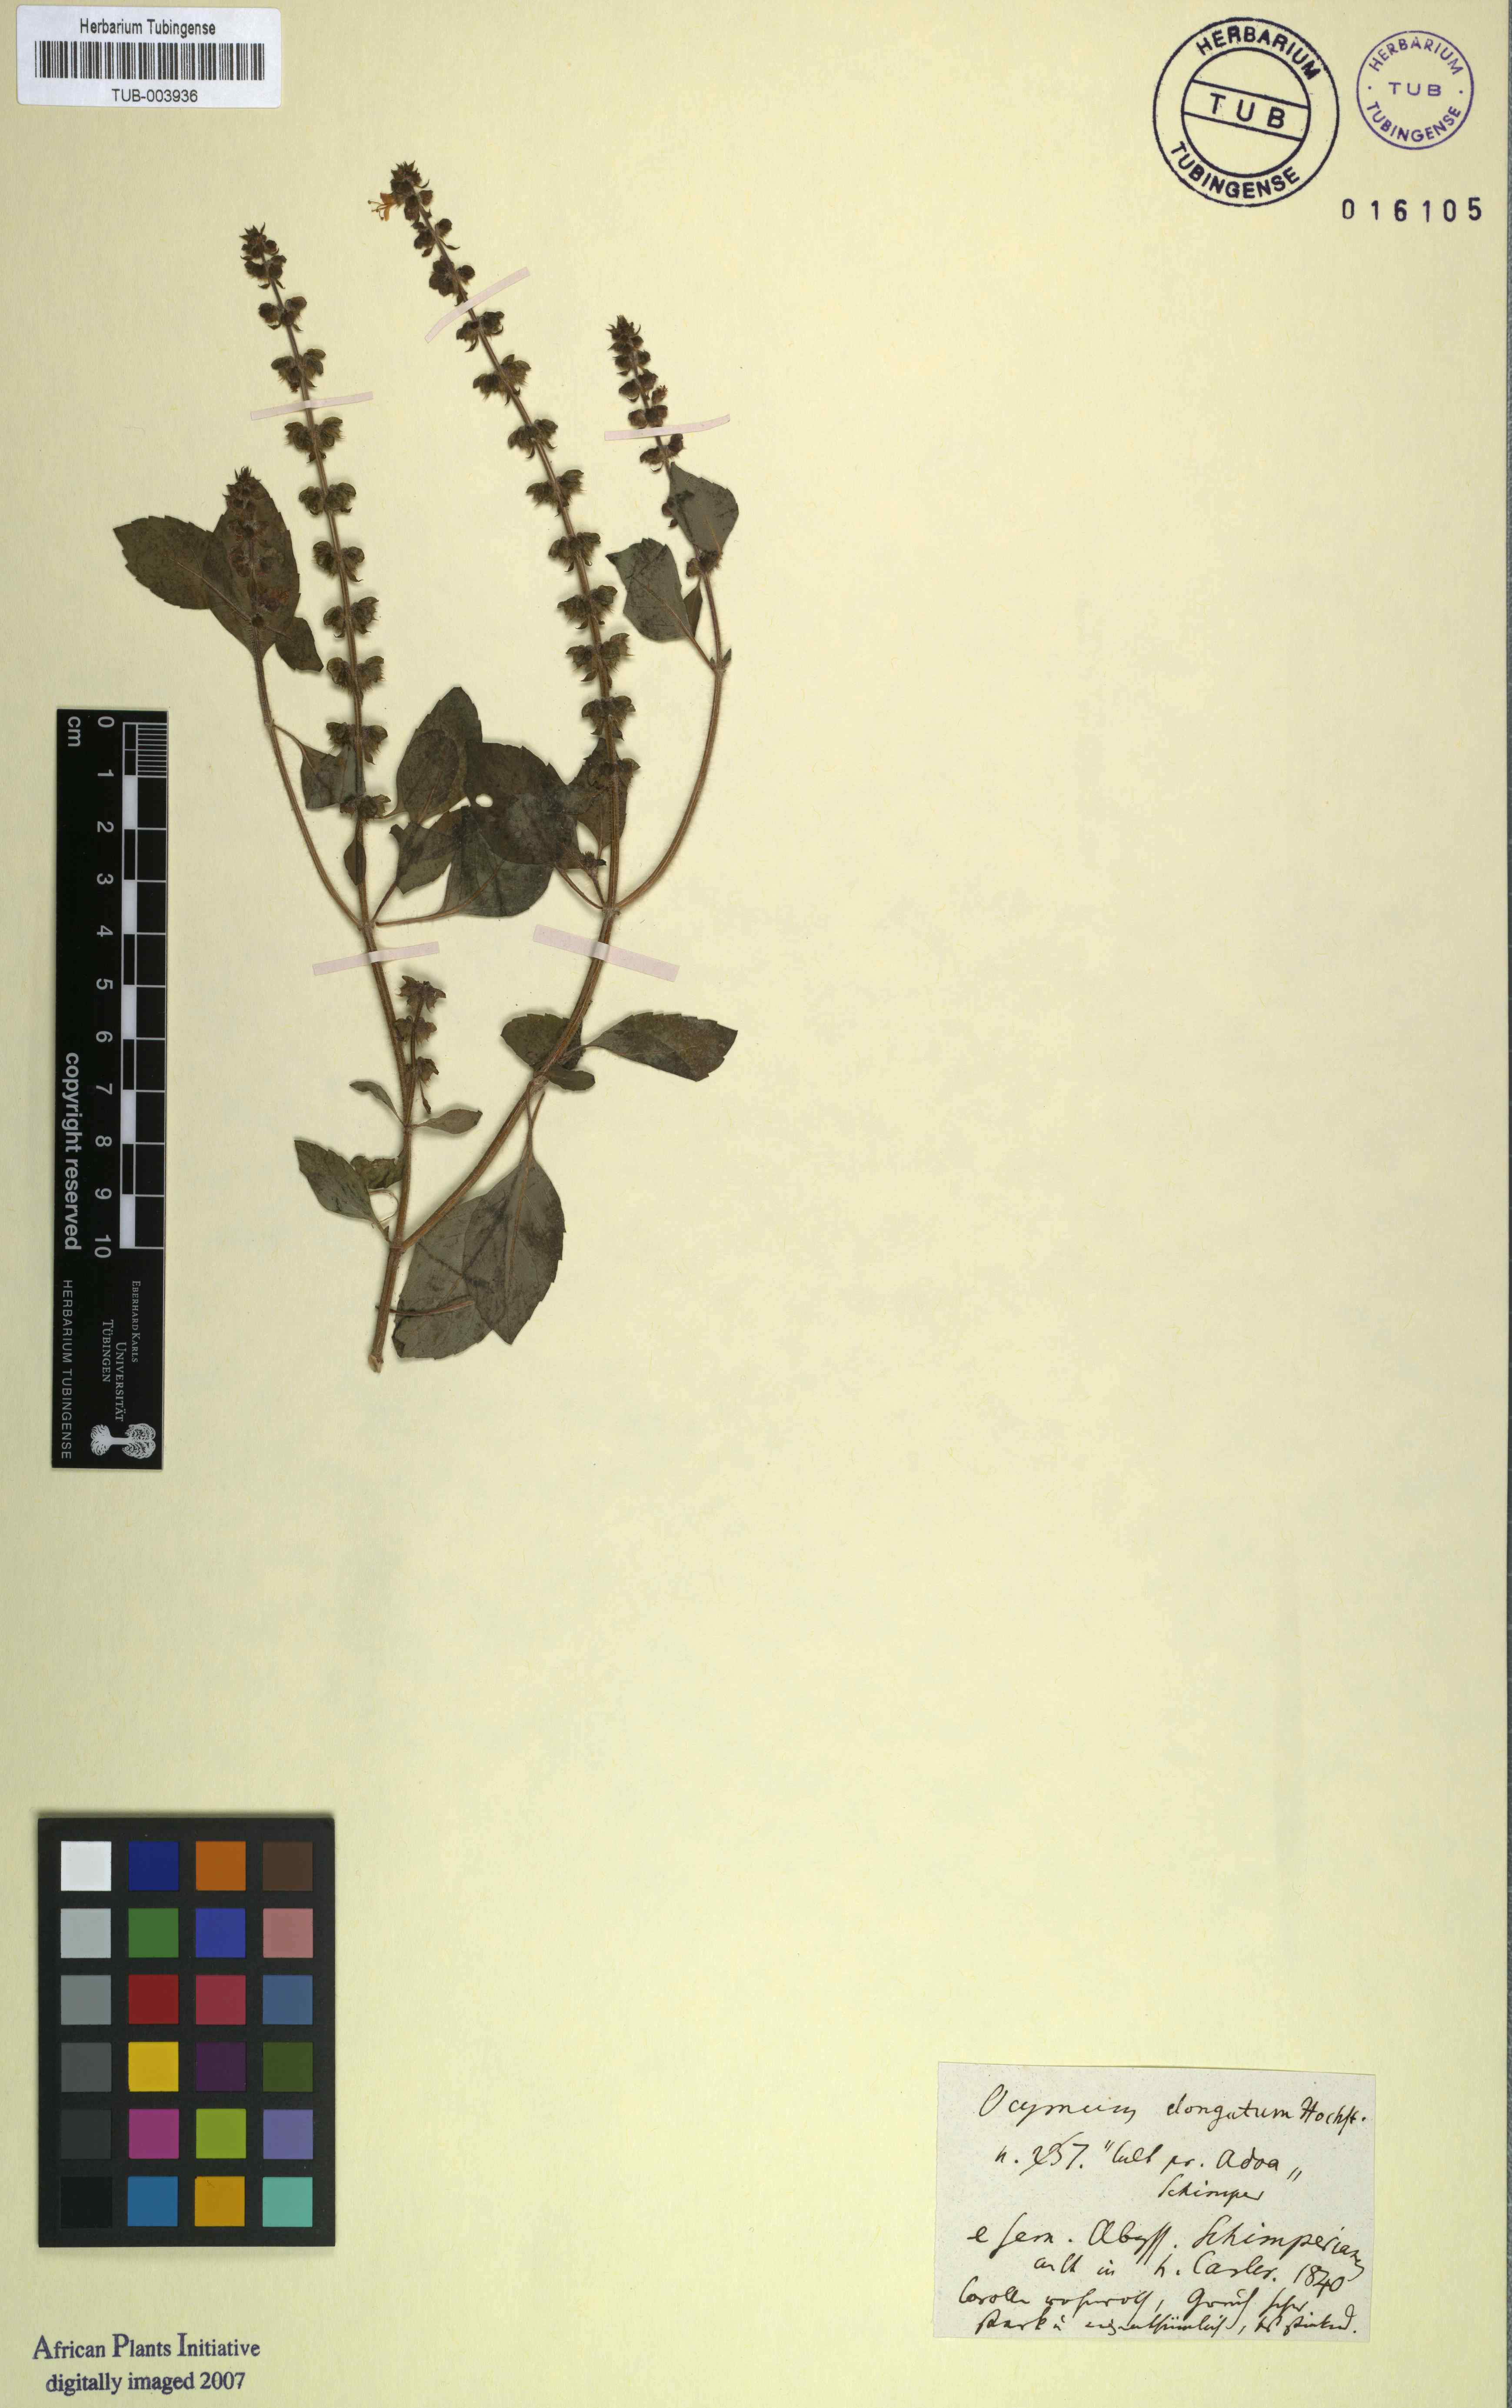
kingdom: Plantae
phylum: Tracheophyta
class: Magnoliopsida
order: Lamiales
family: Lamiaceae
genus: Ocimum
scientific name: Ocimum
